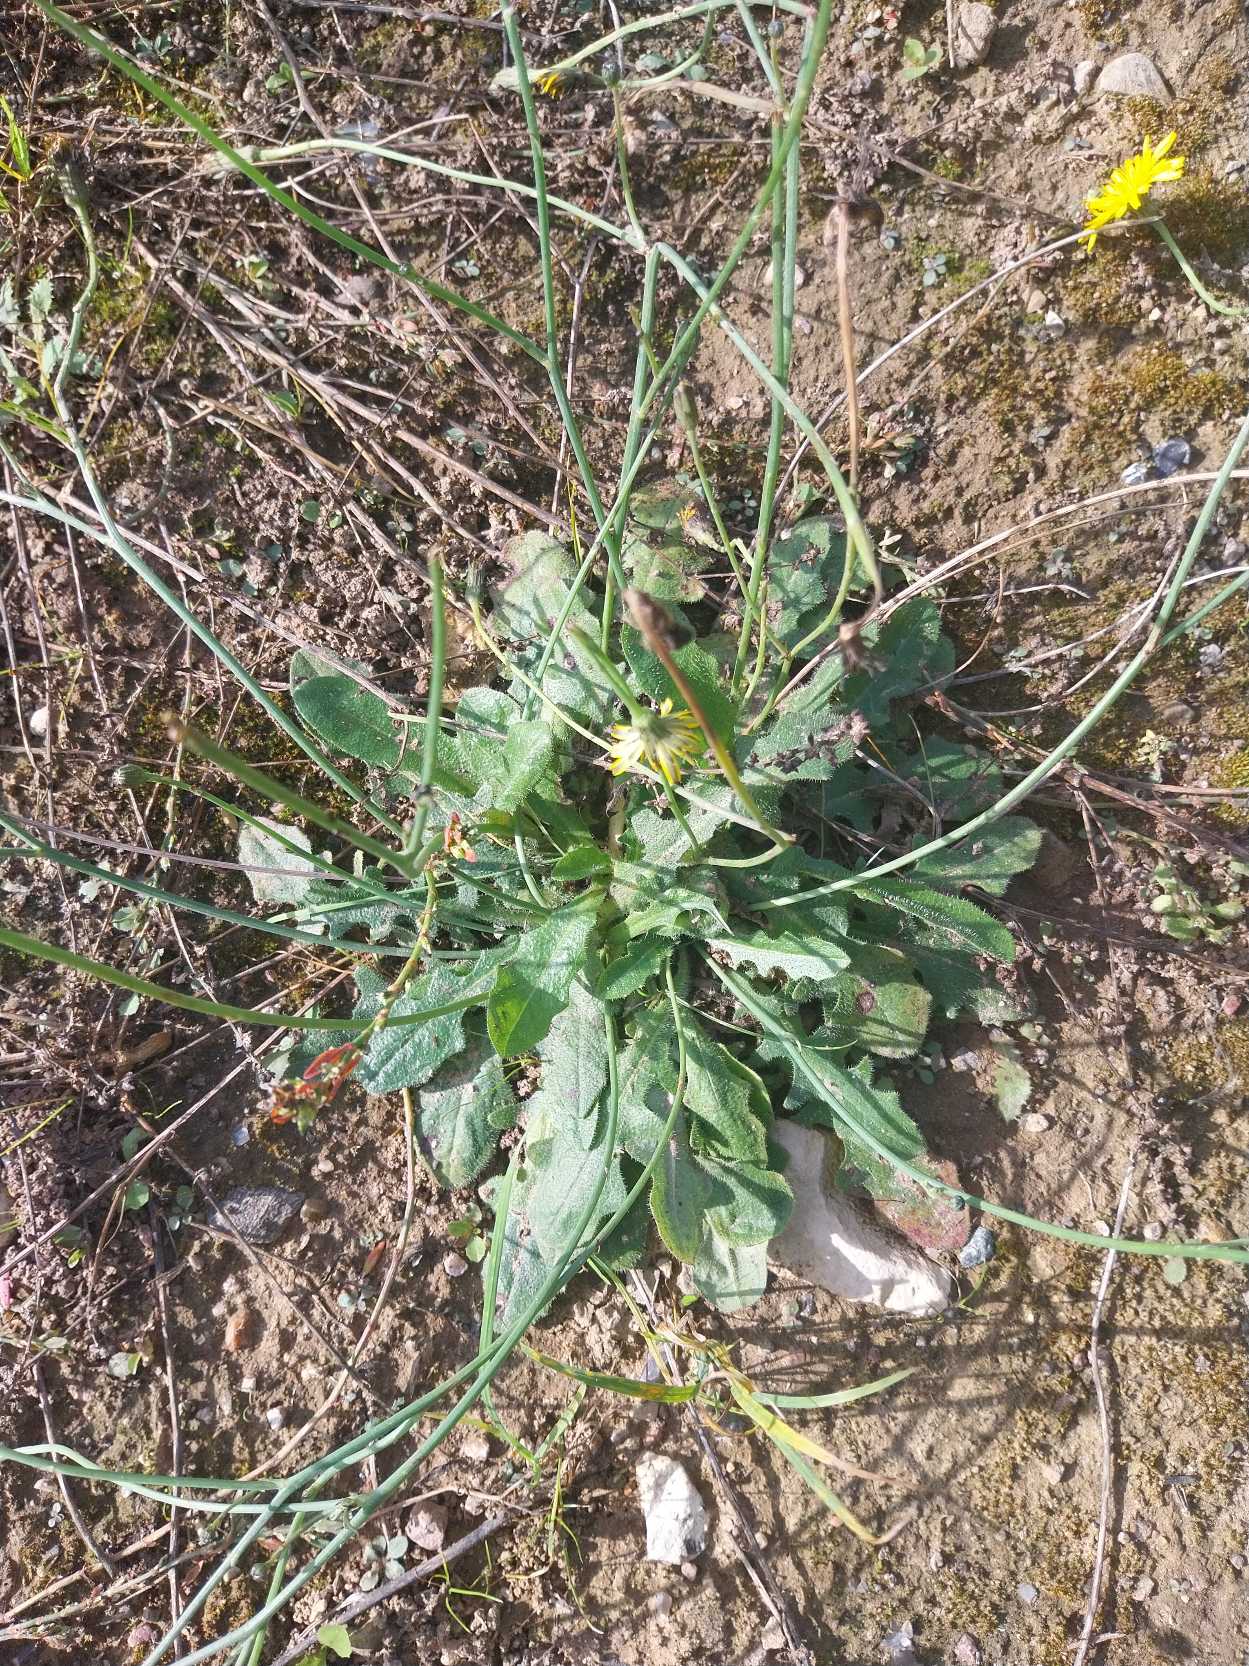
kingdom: Plantae
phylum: Tracheophyta
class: Magnoliopsida
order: Asterales
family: Asteraceae
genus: Hypochaeris
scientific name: Hypochaeris radicata
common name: Almindelig kongepen
